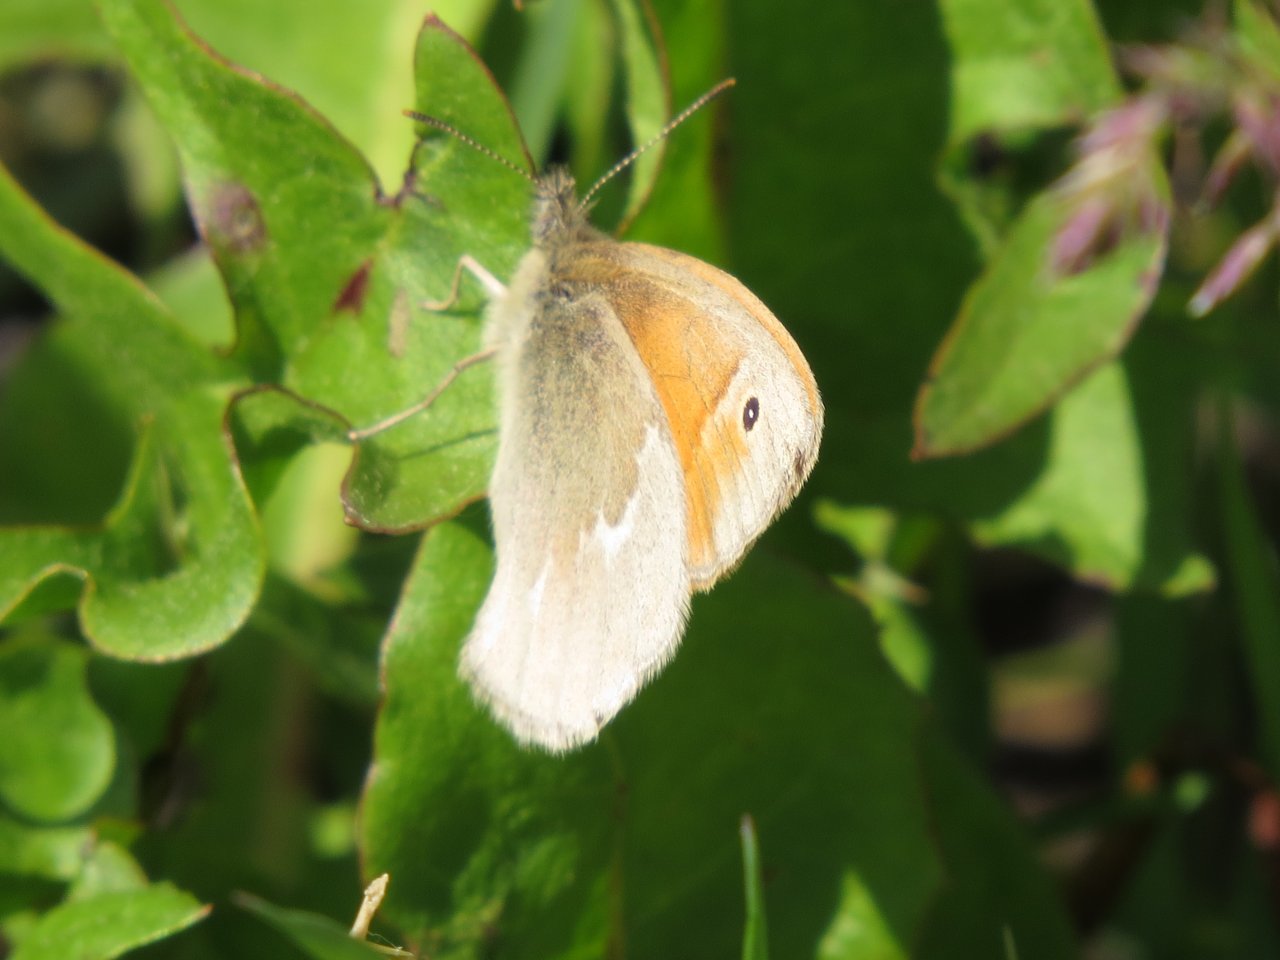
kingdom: Animalia
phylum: Arthropoda
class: Insecta
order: Lepidoptera
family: Nymphalidae
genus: Coenonympha
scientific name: Coenonympha tullia
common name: Large Heath
